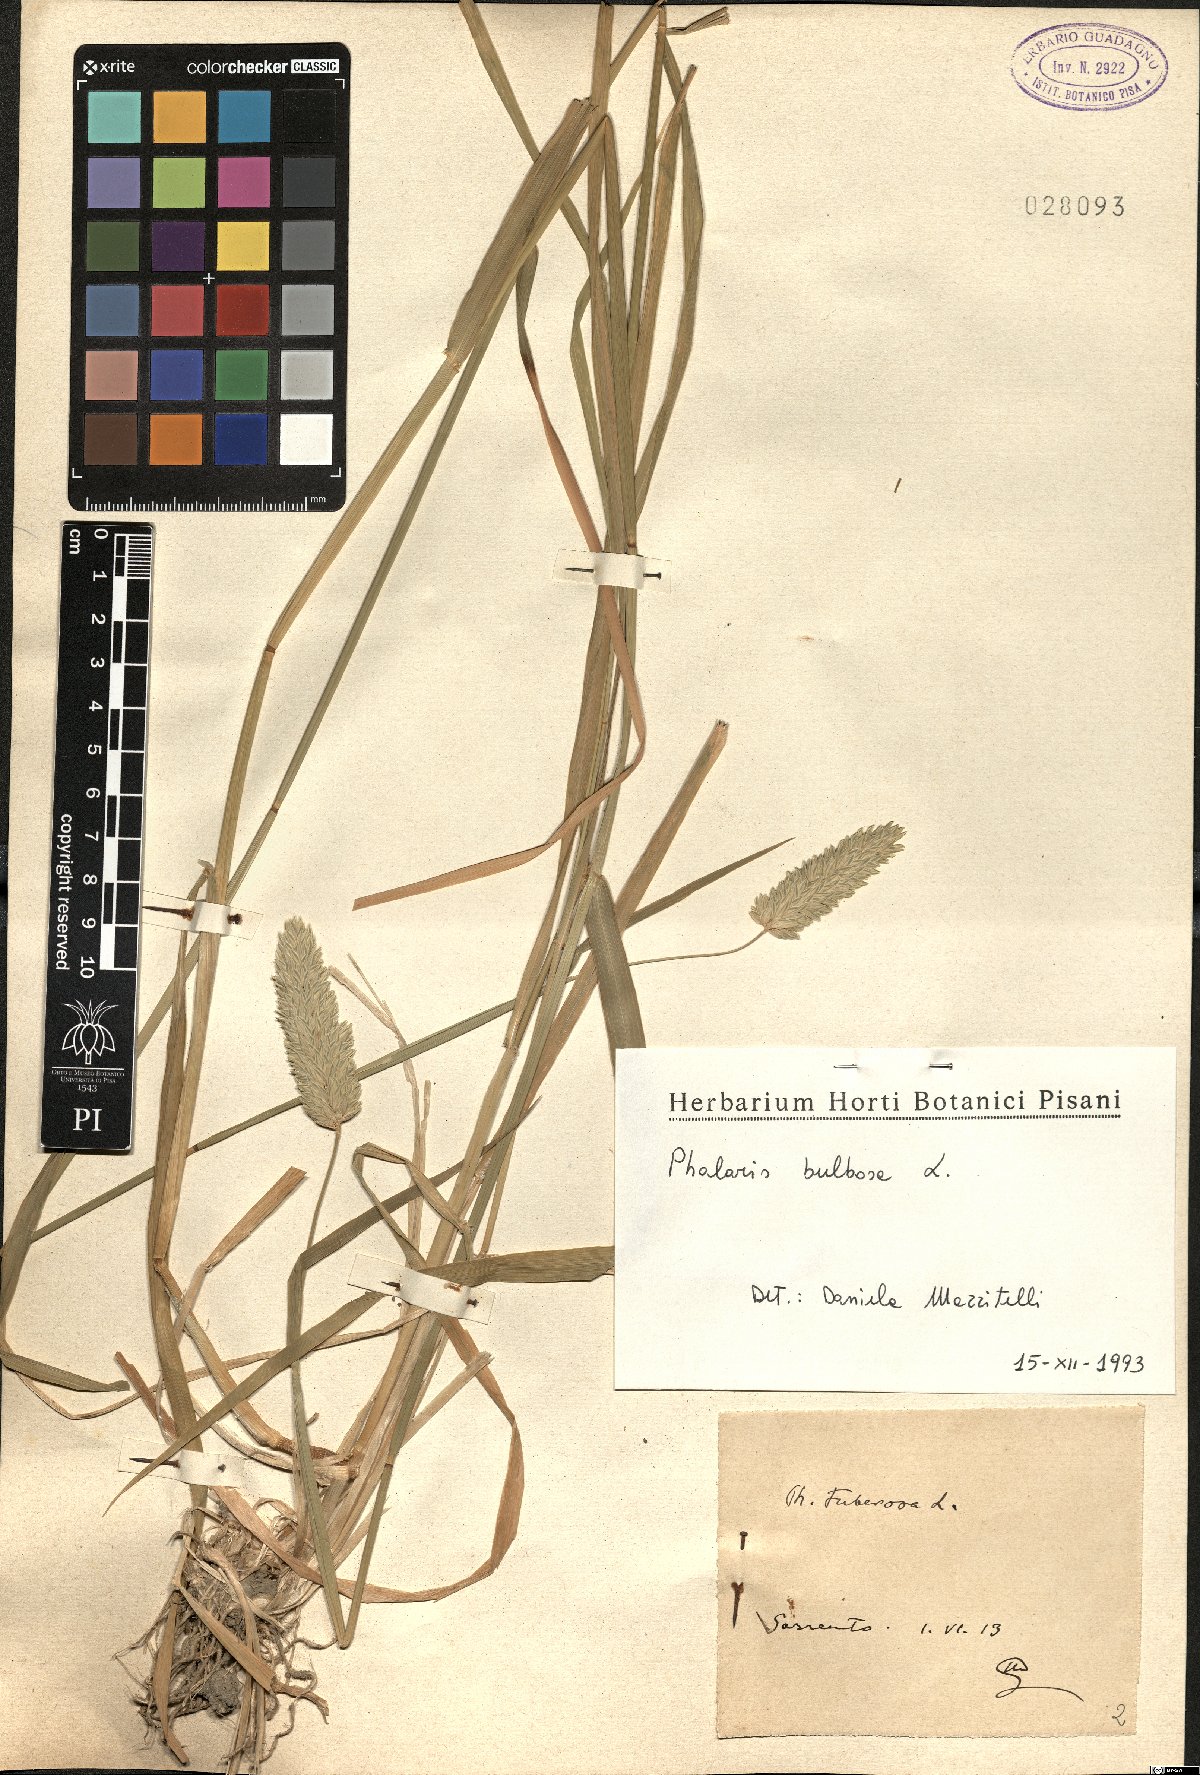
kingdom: Plantae
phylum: Tracheophyta
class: Liliopsida
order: Poales
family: Poaceae
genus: Phleum
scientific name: Phleum subulatum
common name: Italian timothy
